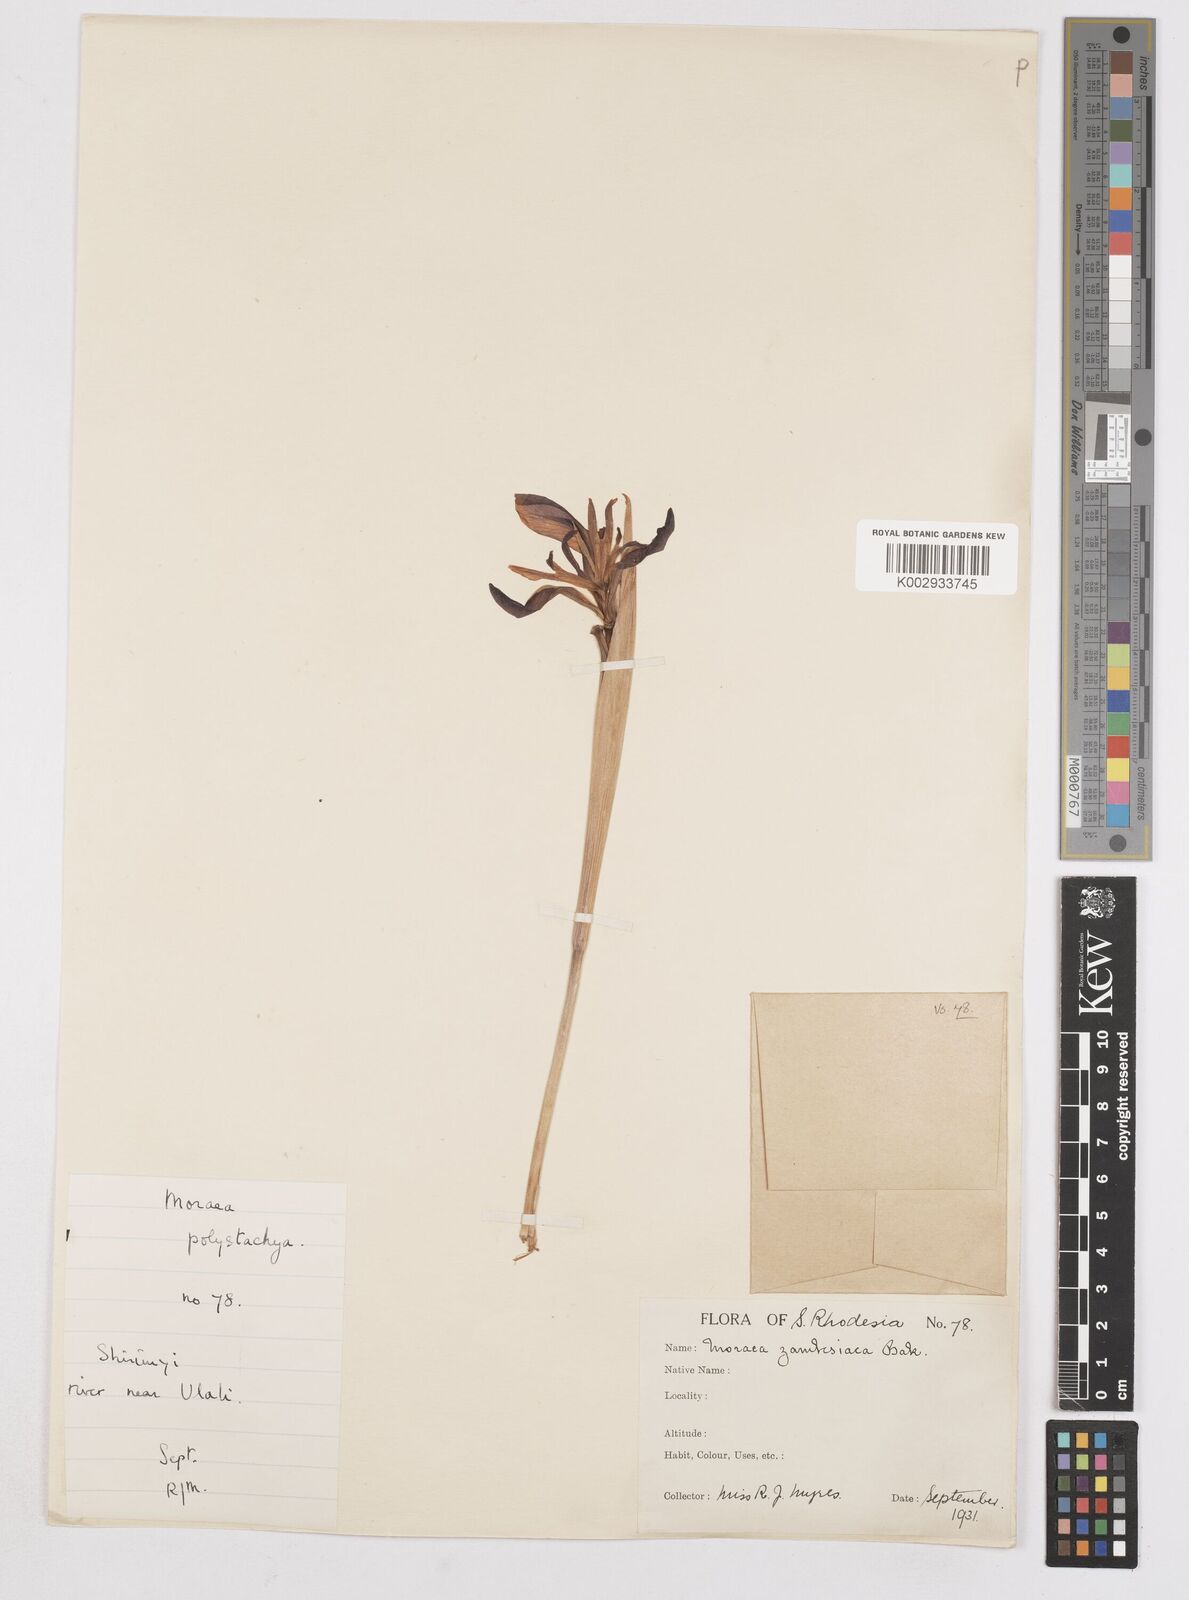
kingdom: Plantae
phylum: Tracheophyta
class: Liliopsida
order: Asparagales
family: Iridaceae
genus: Moraea
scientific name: Moraea schimperi
